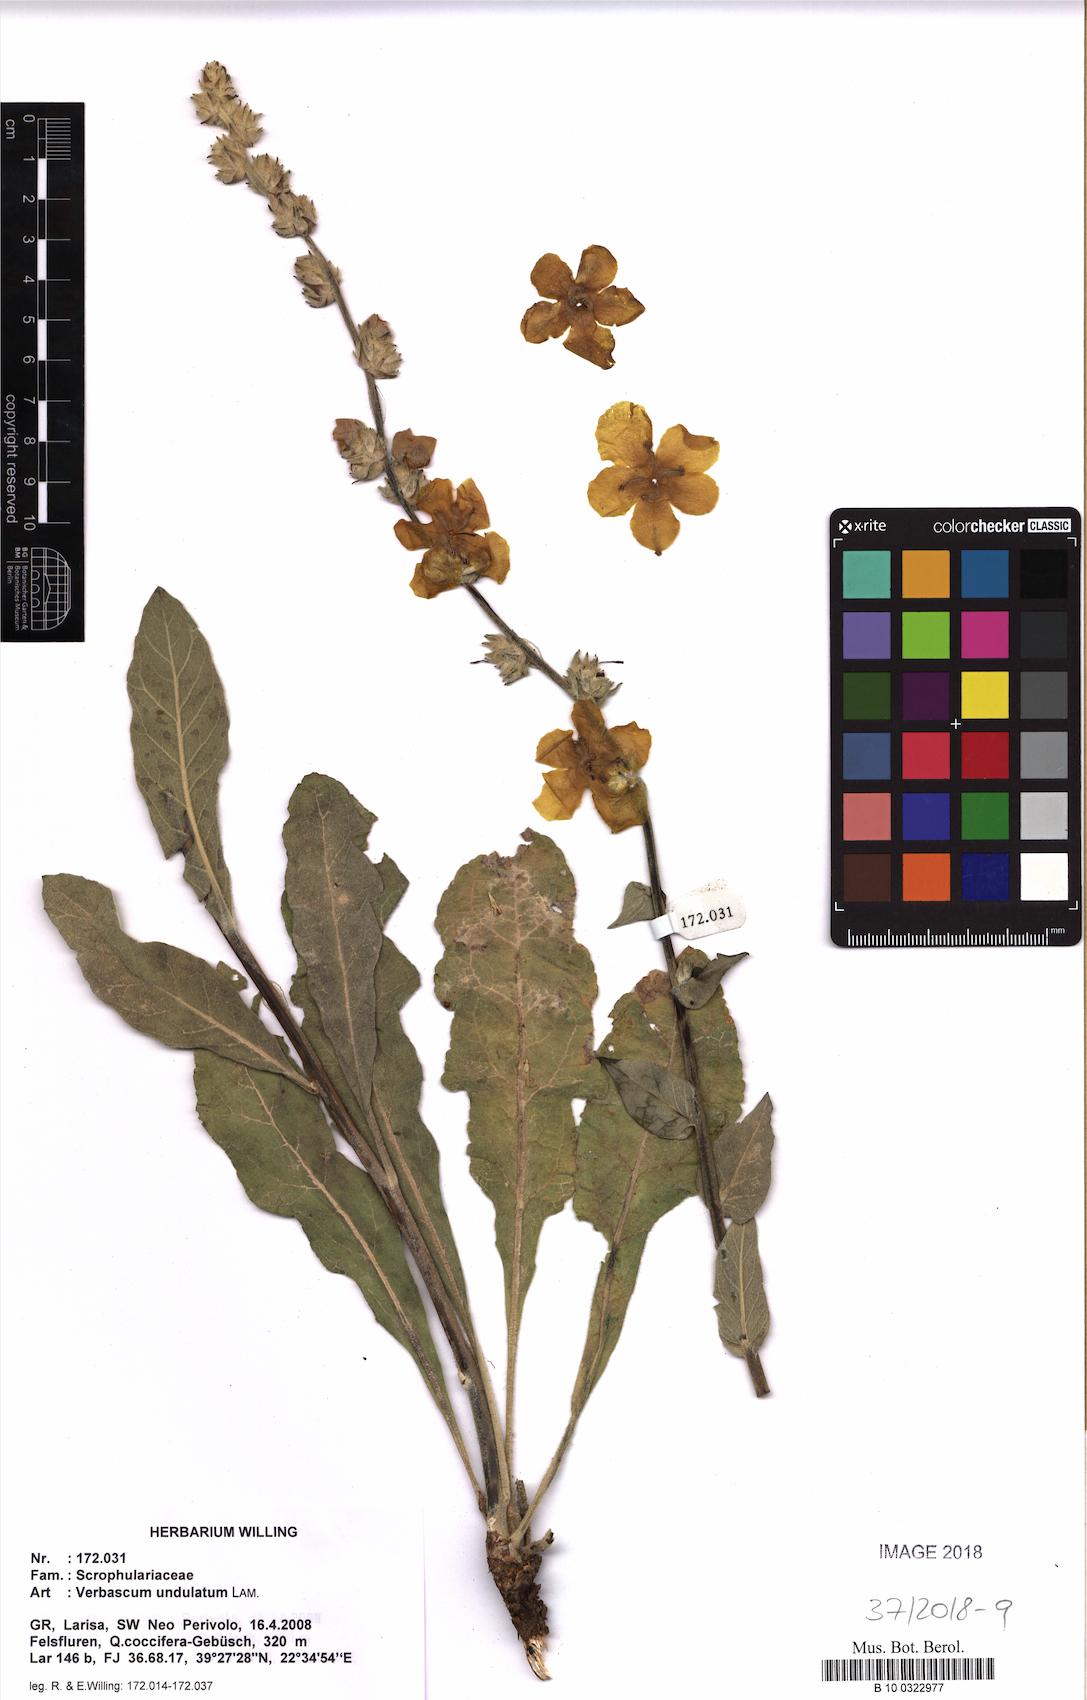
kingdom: Plantae
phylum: Tracheophyta
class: Magnoliopsida
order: Lamiales
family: Scrophulariaceae
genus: Verbascum
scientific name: Verbascum undulatum
